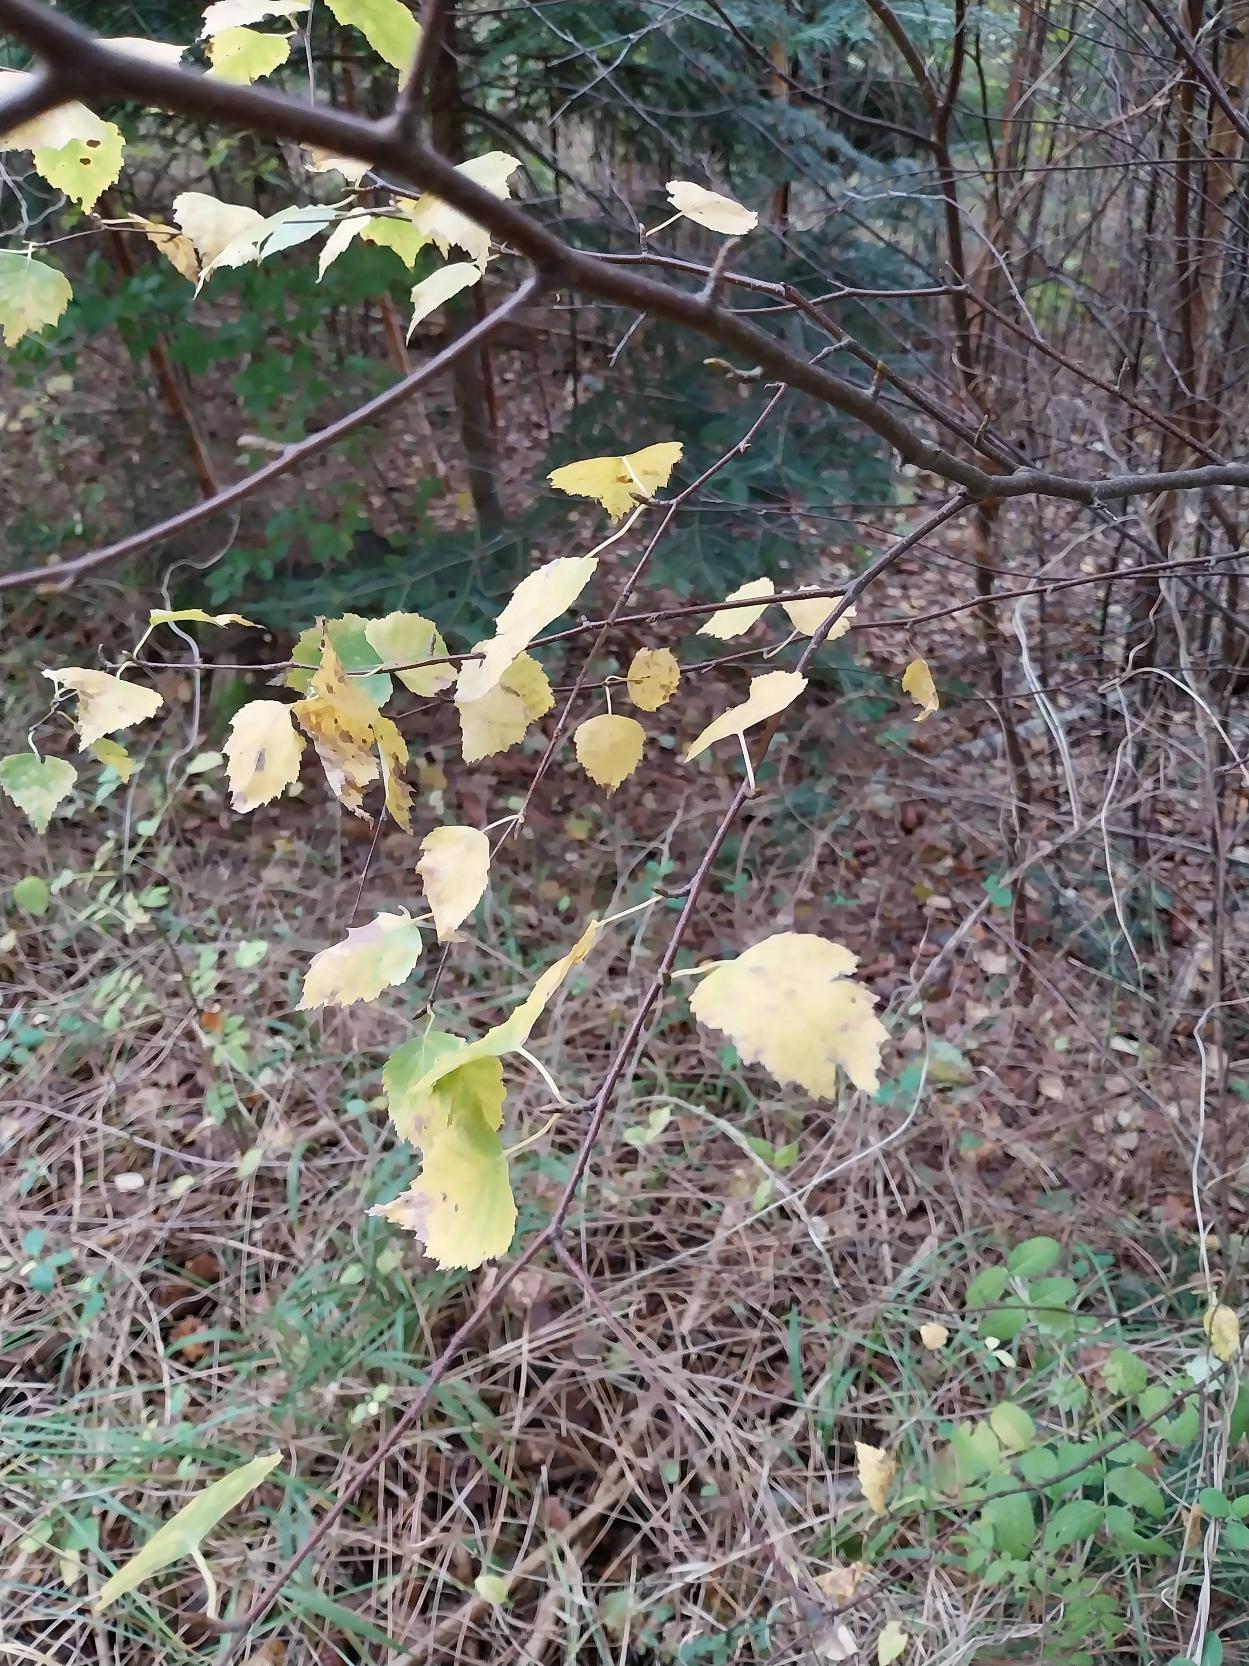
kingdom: Plantae
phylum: Tracheophyta
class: Magnoliopsida
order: Fagales
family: Betulaceae
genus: Betula
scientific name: Betula pendula
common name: Vorte-birk
